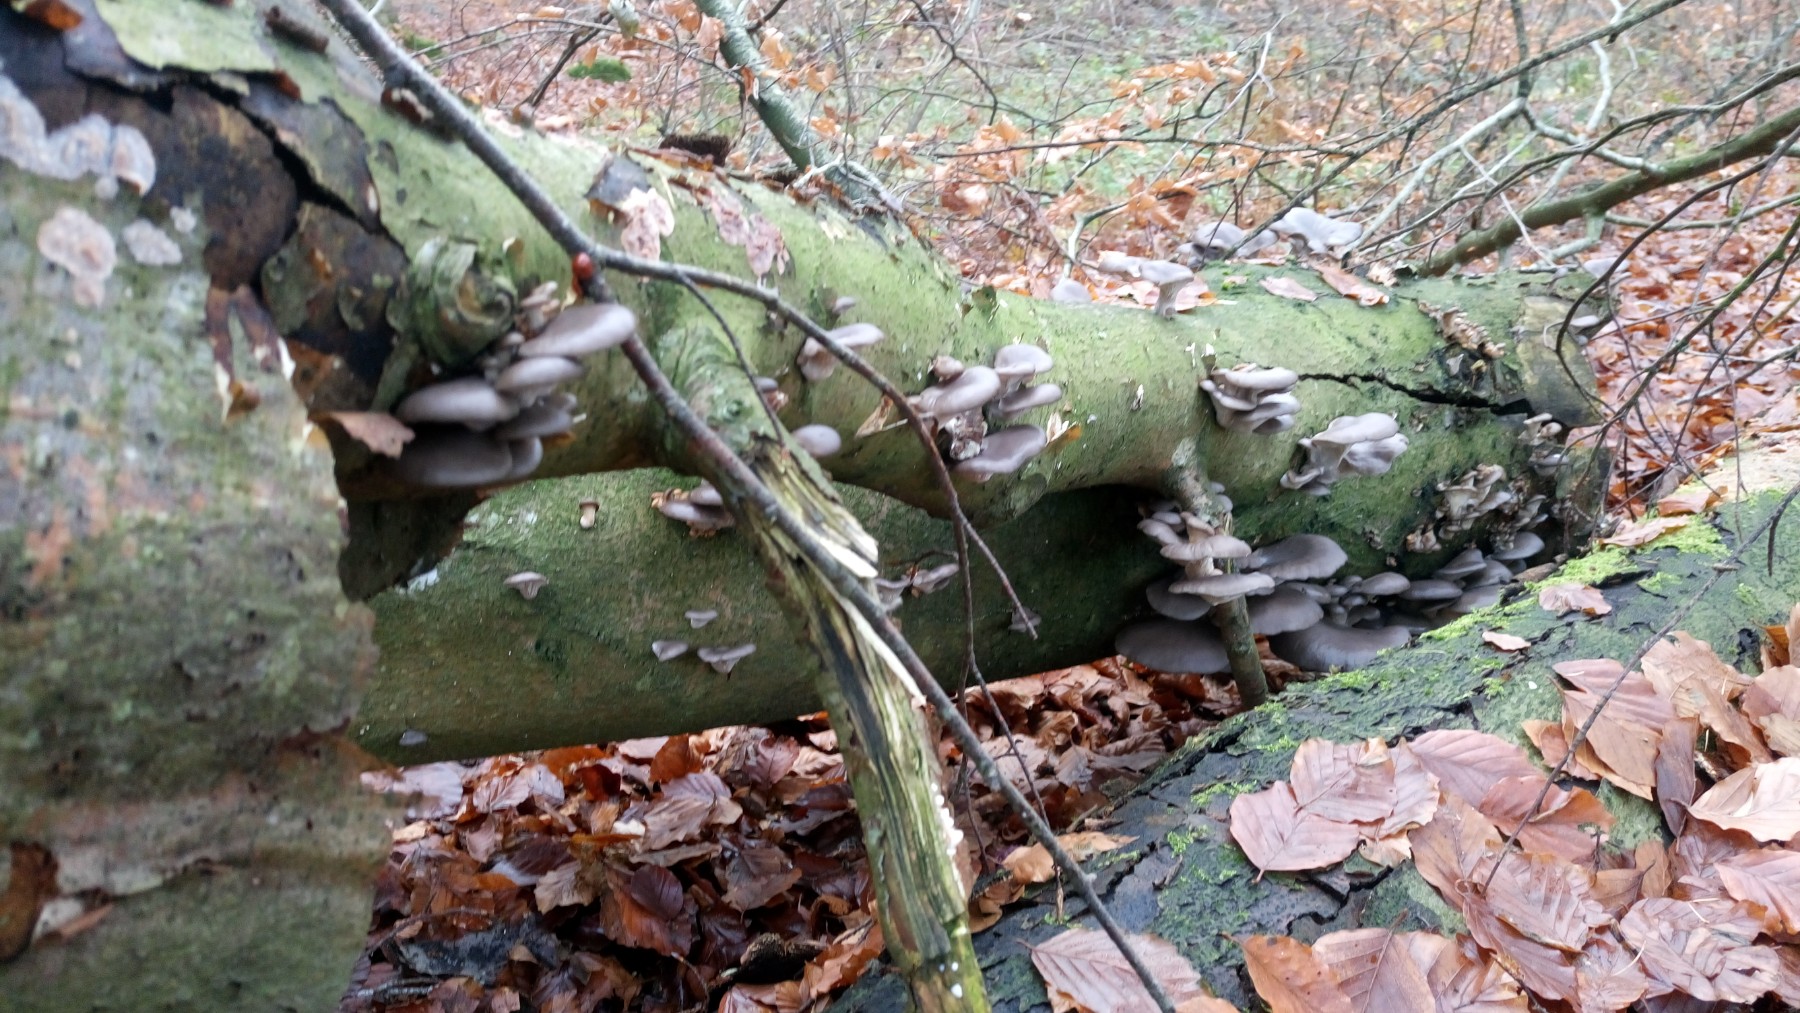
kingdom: Fungi
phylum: Basidiomycota
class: Agaricomycetes
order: Agaricales
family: Pleurotaceae
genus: Pleurotus
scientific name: Pleurotus ostreatus
